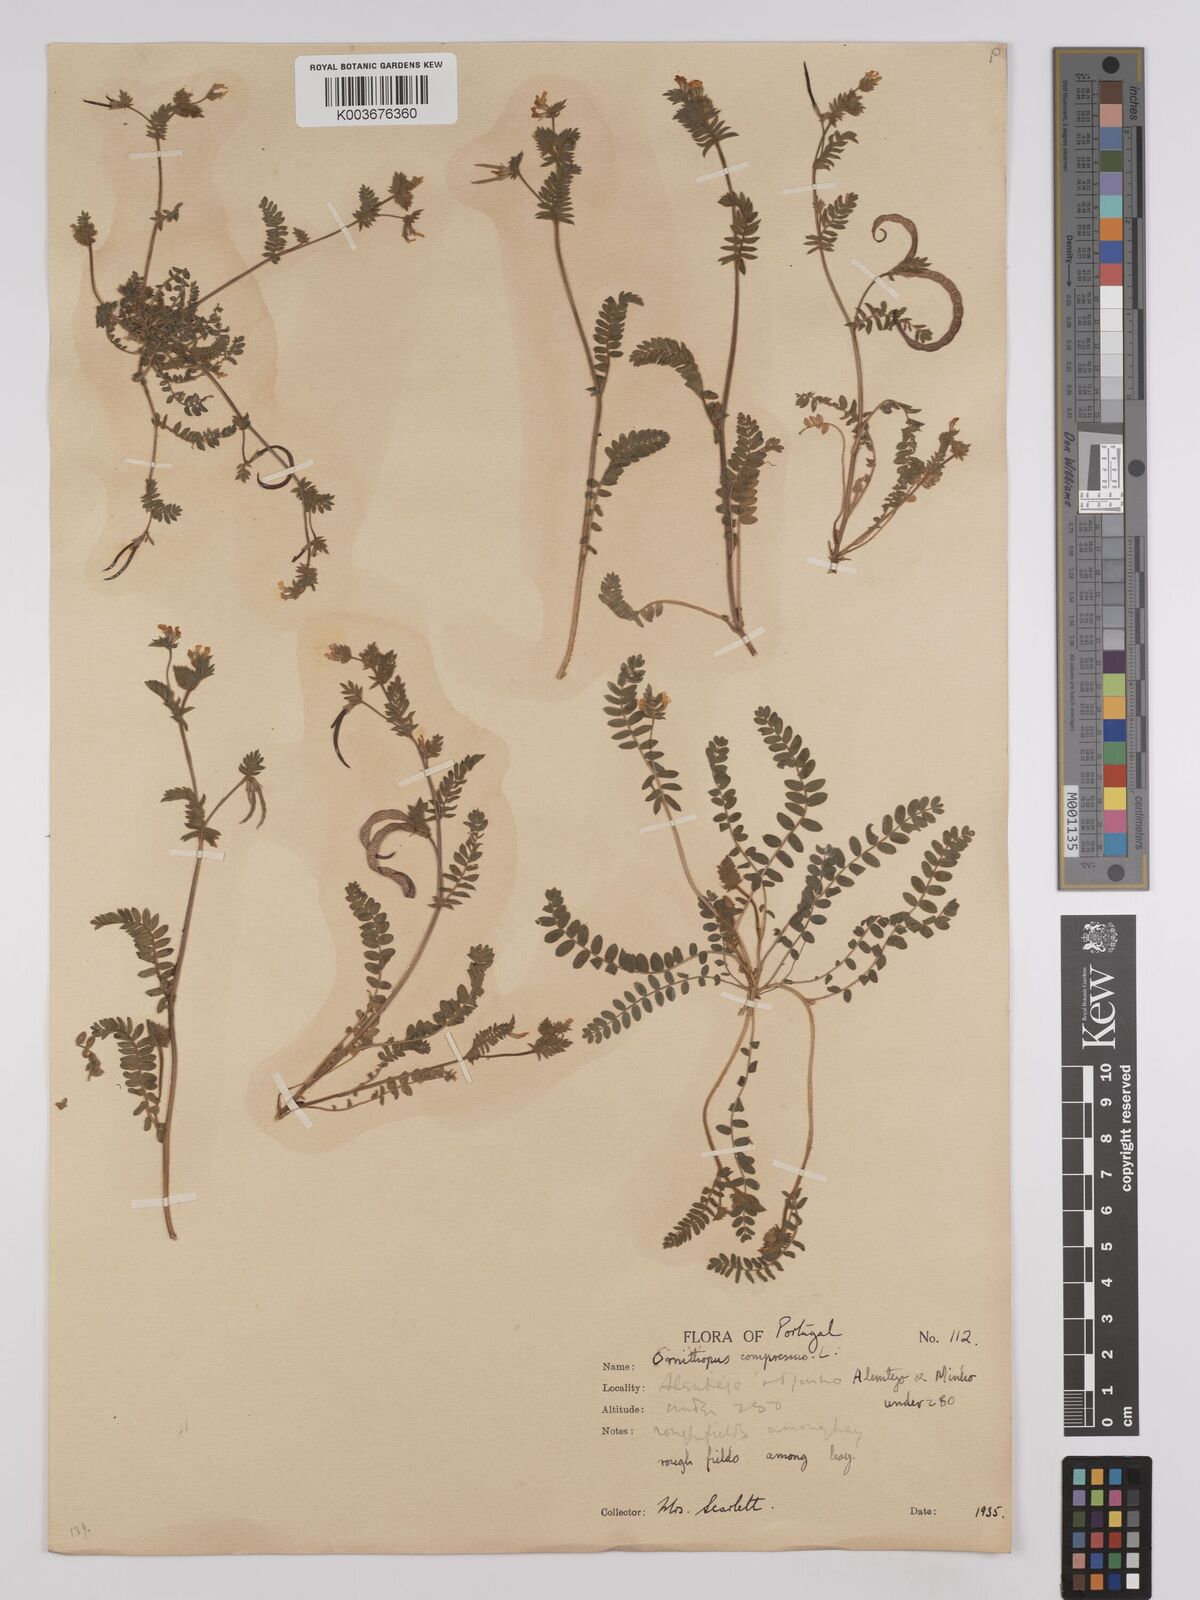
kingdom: Plantae
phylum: Tracheophyta
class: Magnoliopsida
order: Fabales
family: Fabaceae
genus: Ornithopus
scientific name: Ornithopus compressus
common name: Yellow serradella
